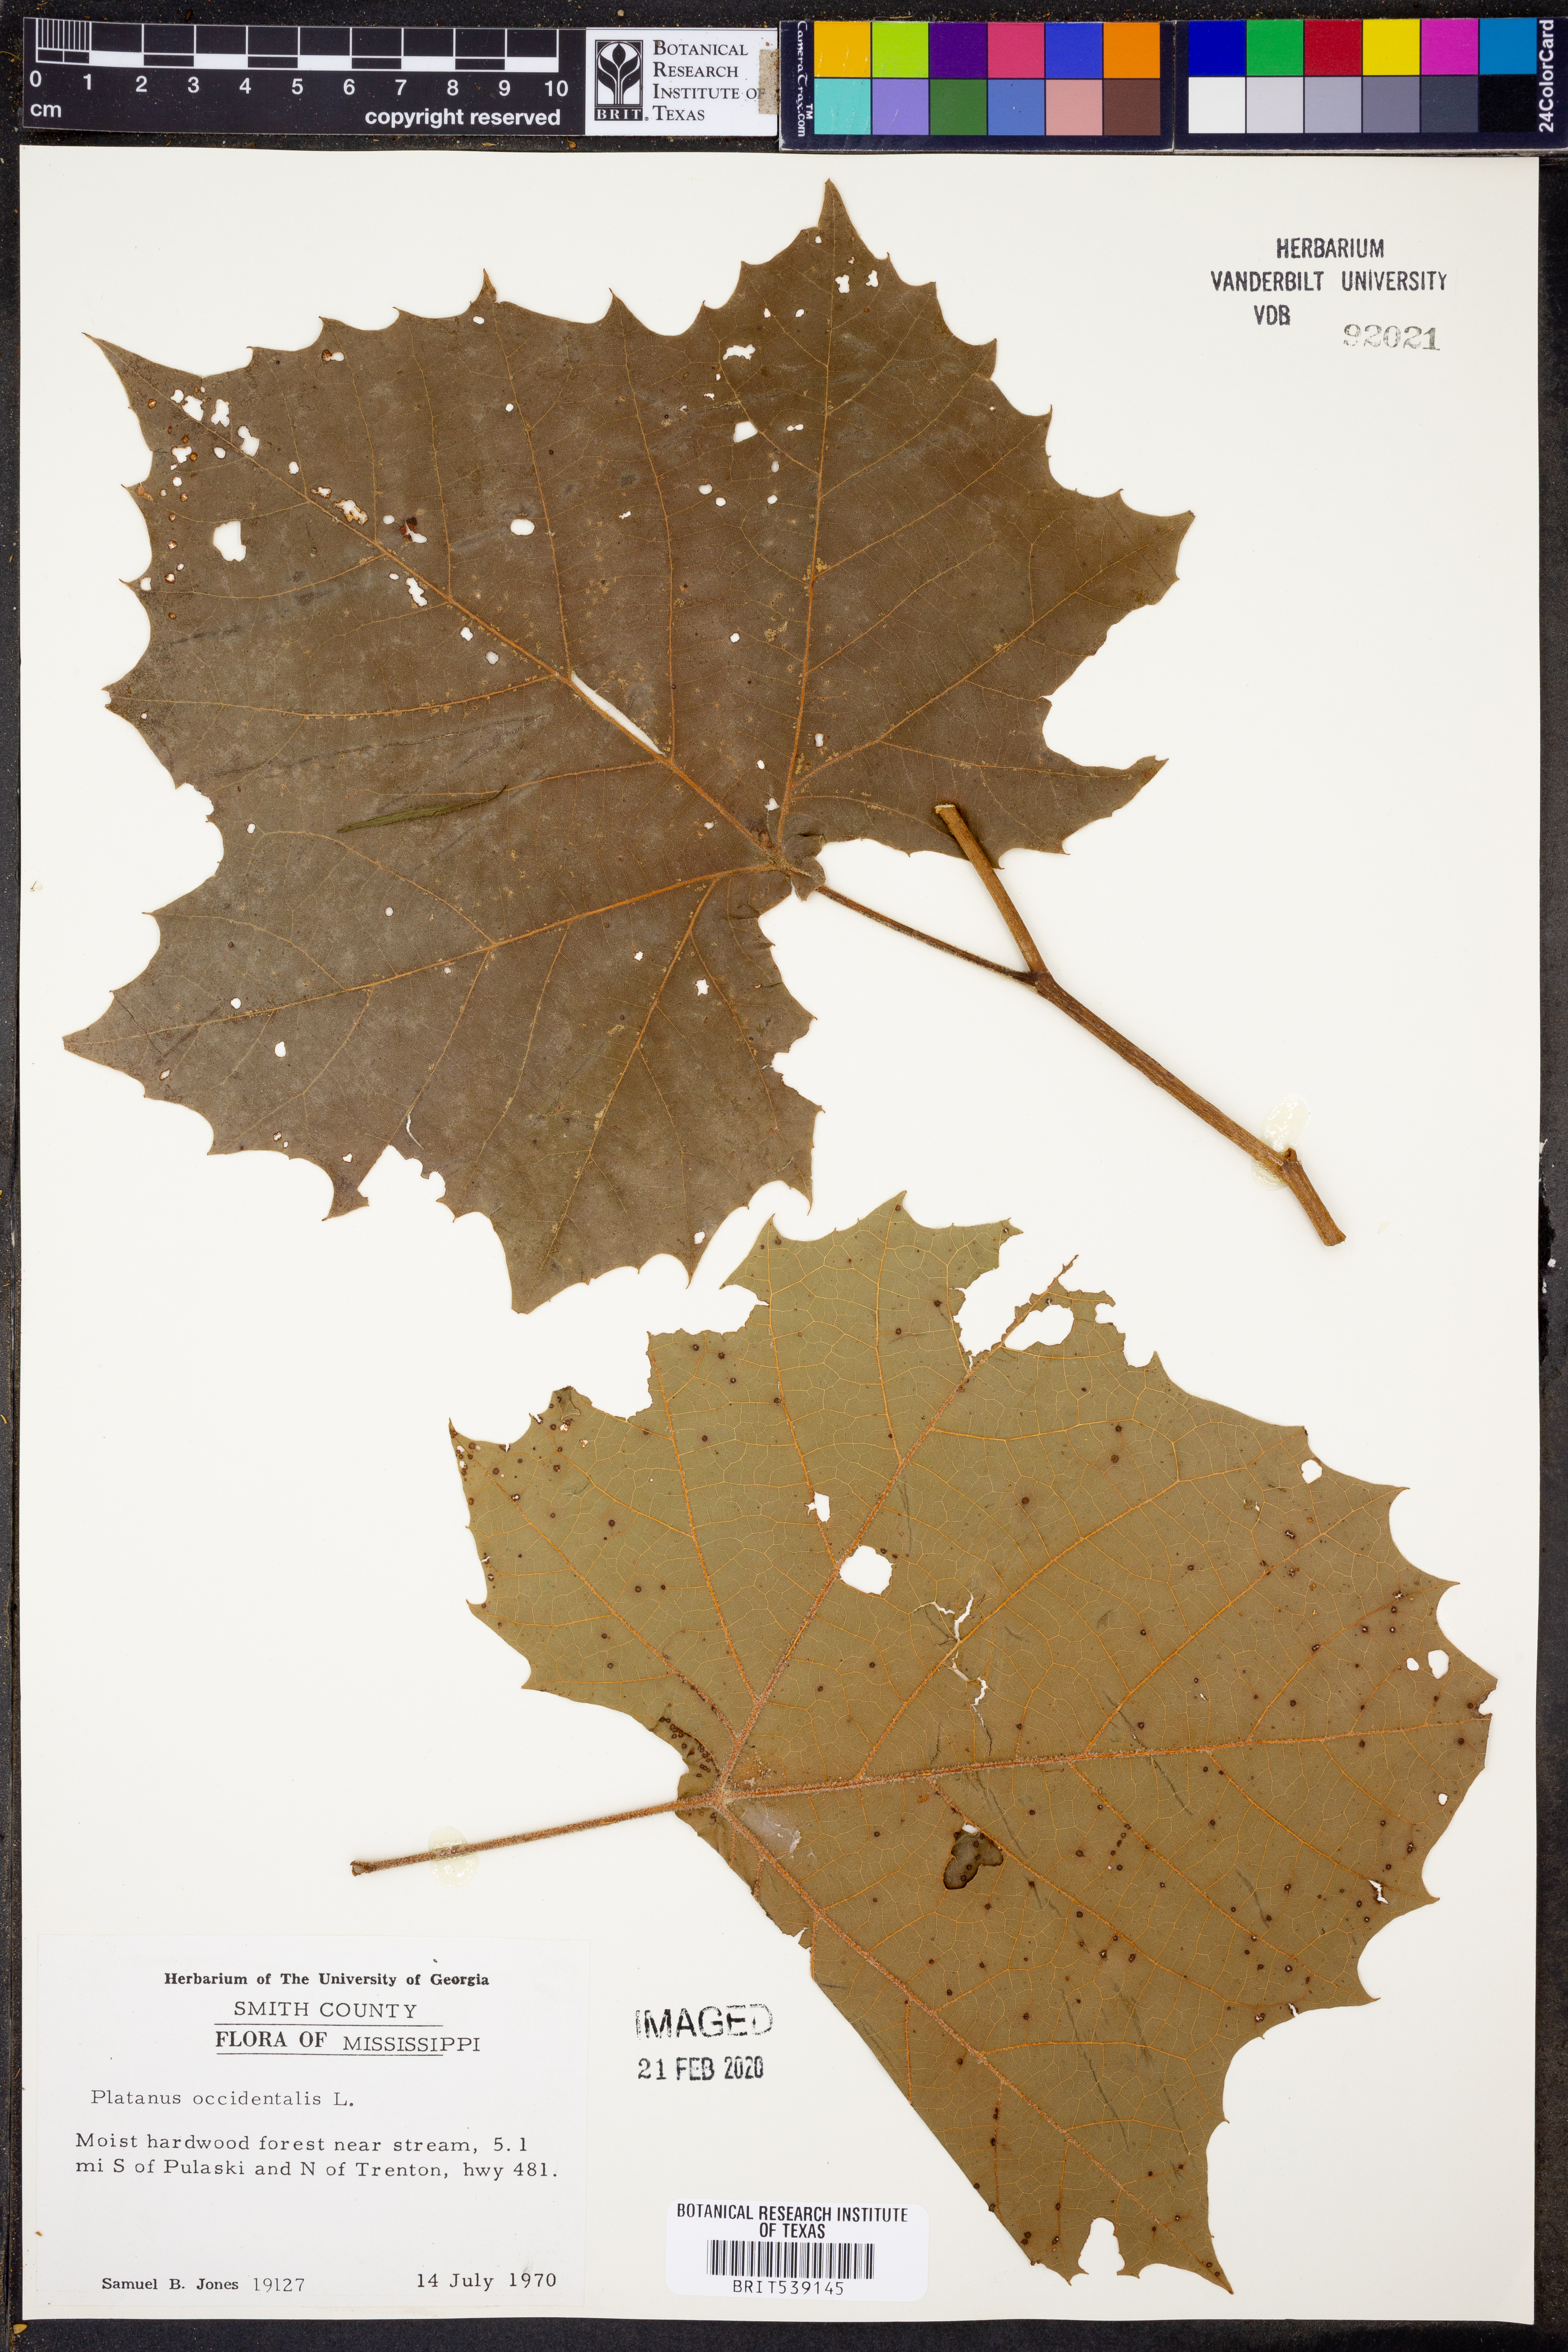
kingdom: Plantae
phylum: Tracheophyta
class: Magnoliopsida
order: Proteales
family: Platanaceae
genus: Platanus
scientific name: Platanus occidentalis
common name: American sycamore
